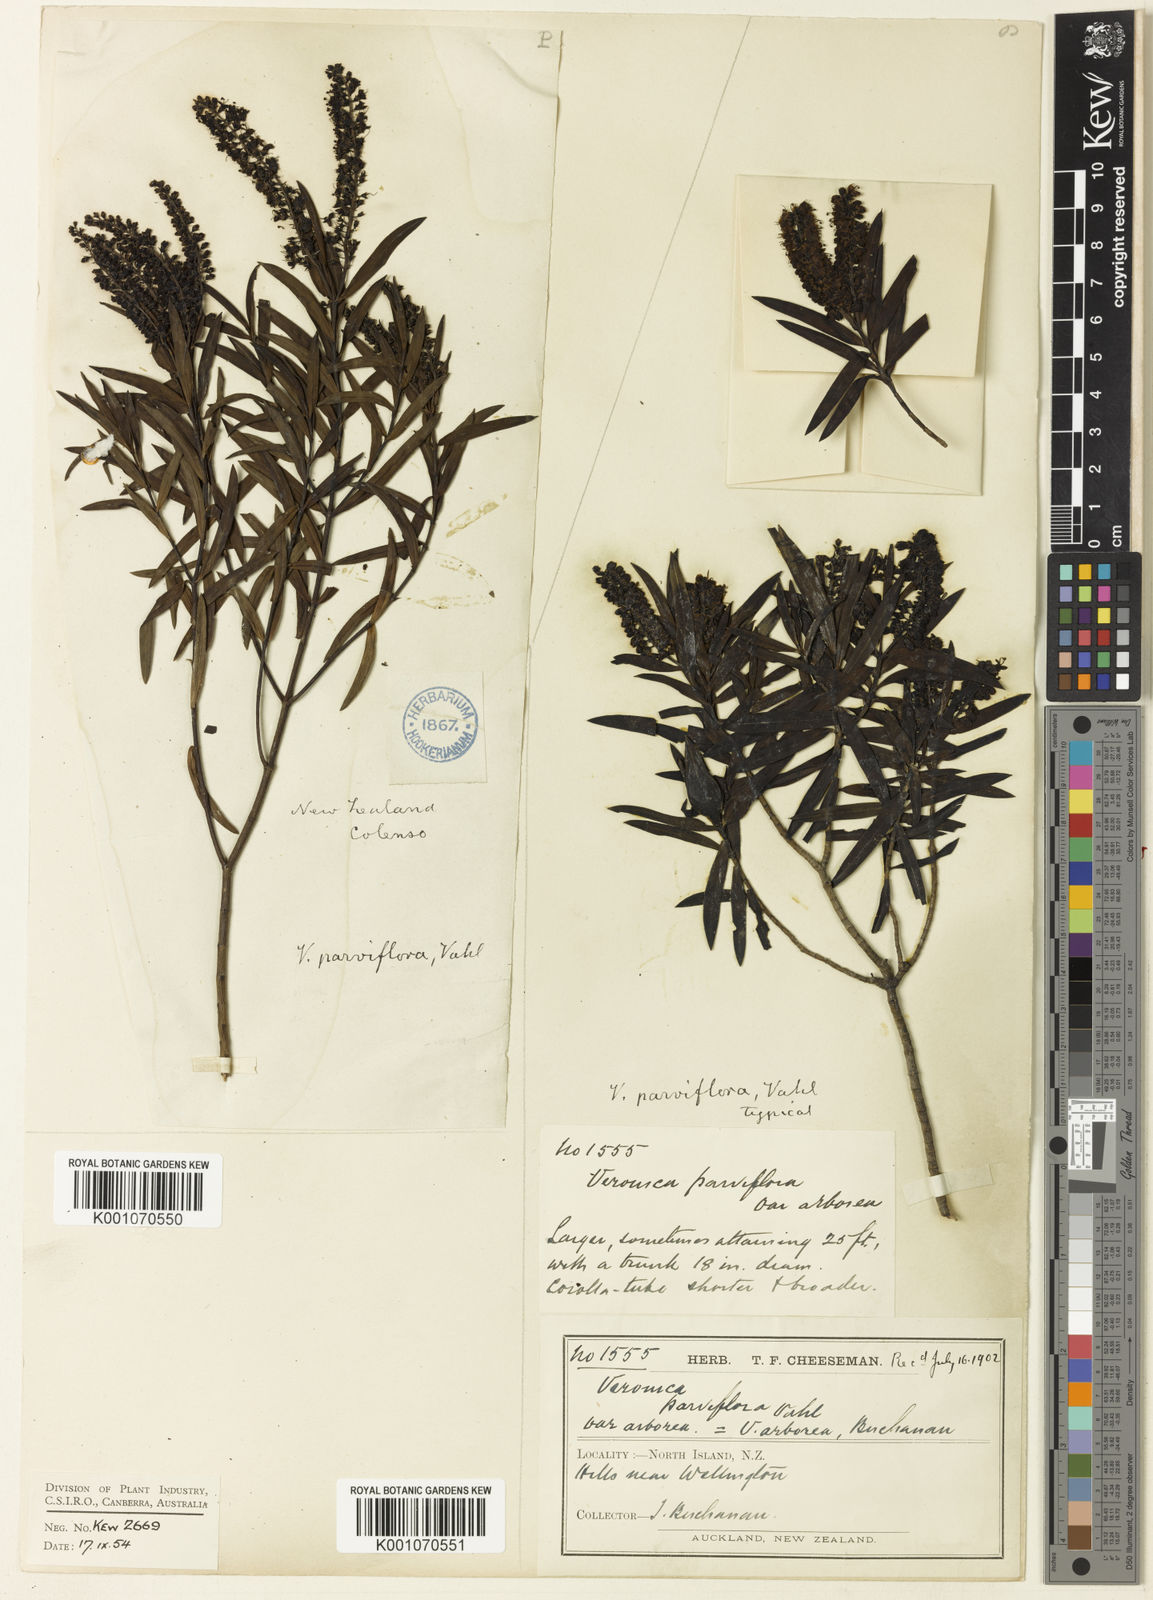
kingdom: Plantae
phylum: Tracheophyta
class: Magnoliopsida
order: Lamiales
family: Plantaginaceae
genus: Veronica
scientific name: Veronica
